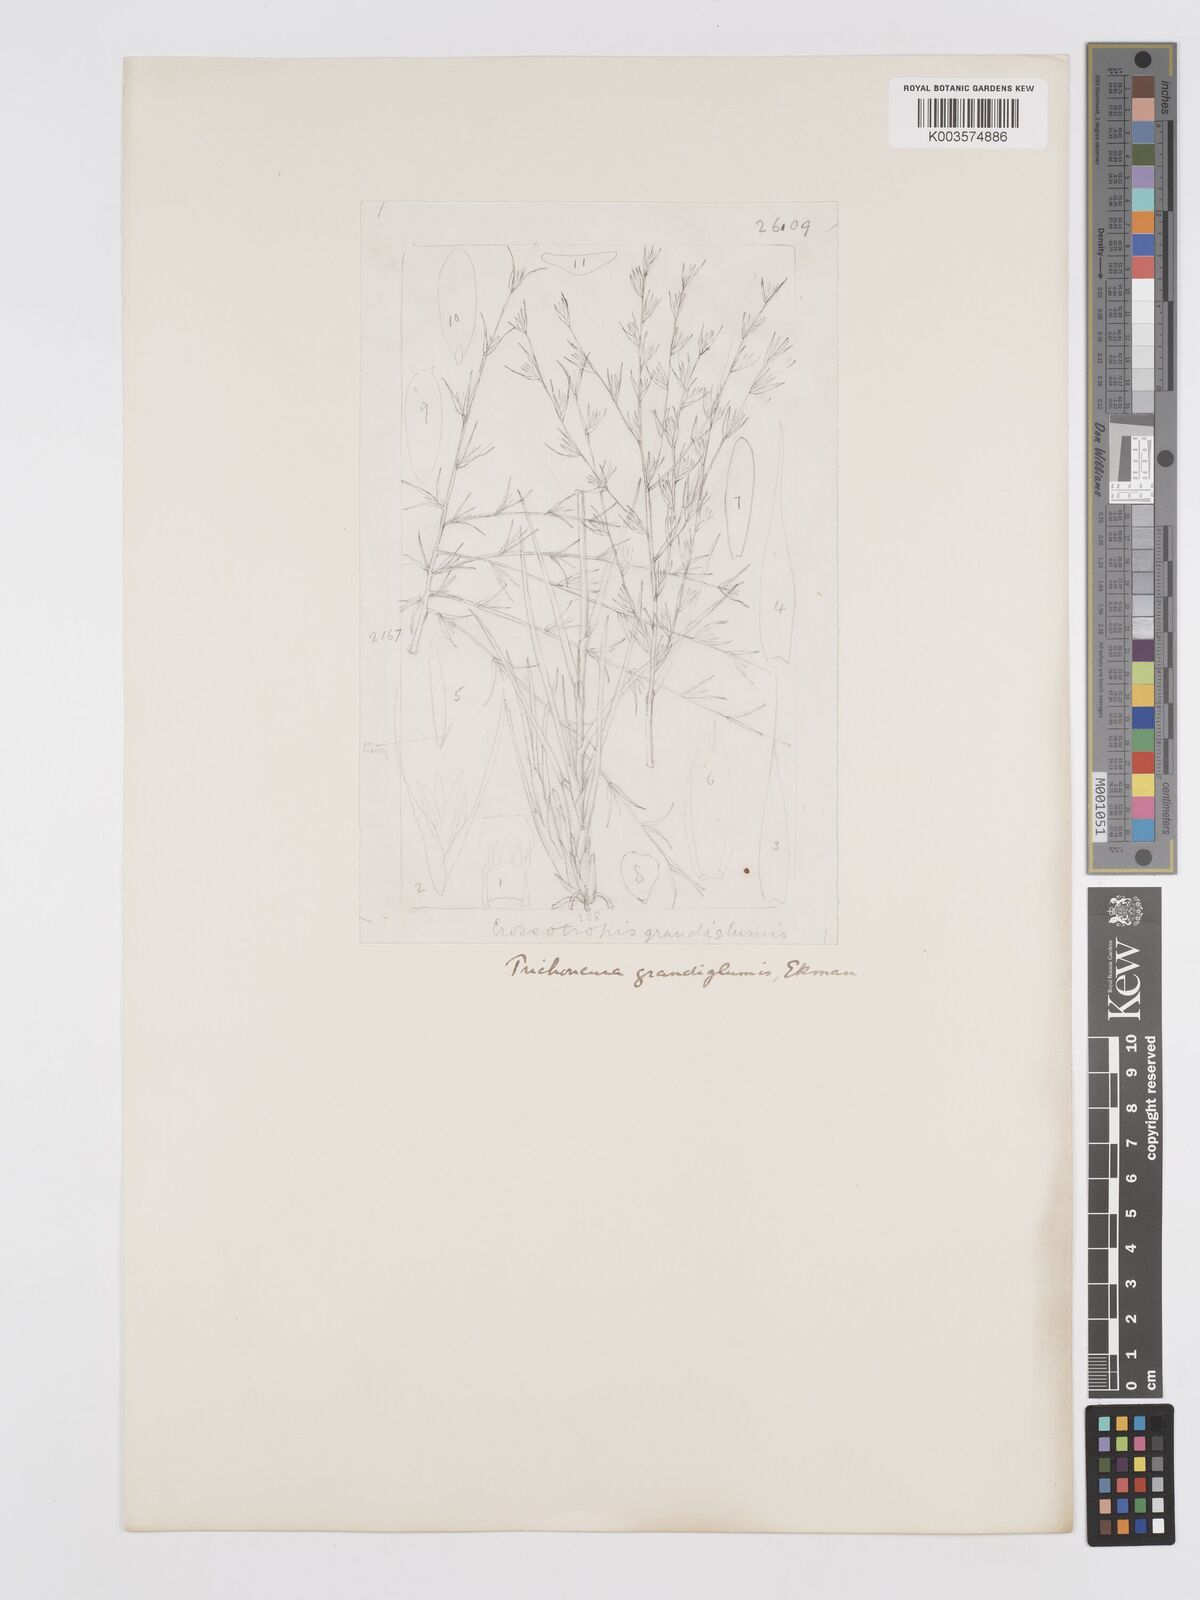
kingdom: Plantae
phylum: Tracheophyta
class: Liliopsida
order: Poales
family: Poaceae
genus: Trichoneura
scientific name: Trichoneura grandiglumis
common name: Rolling grass
